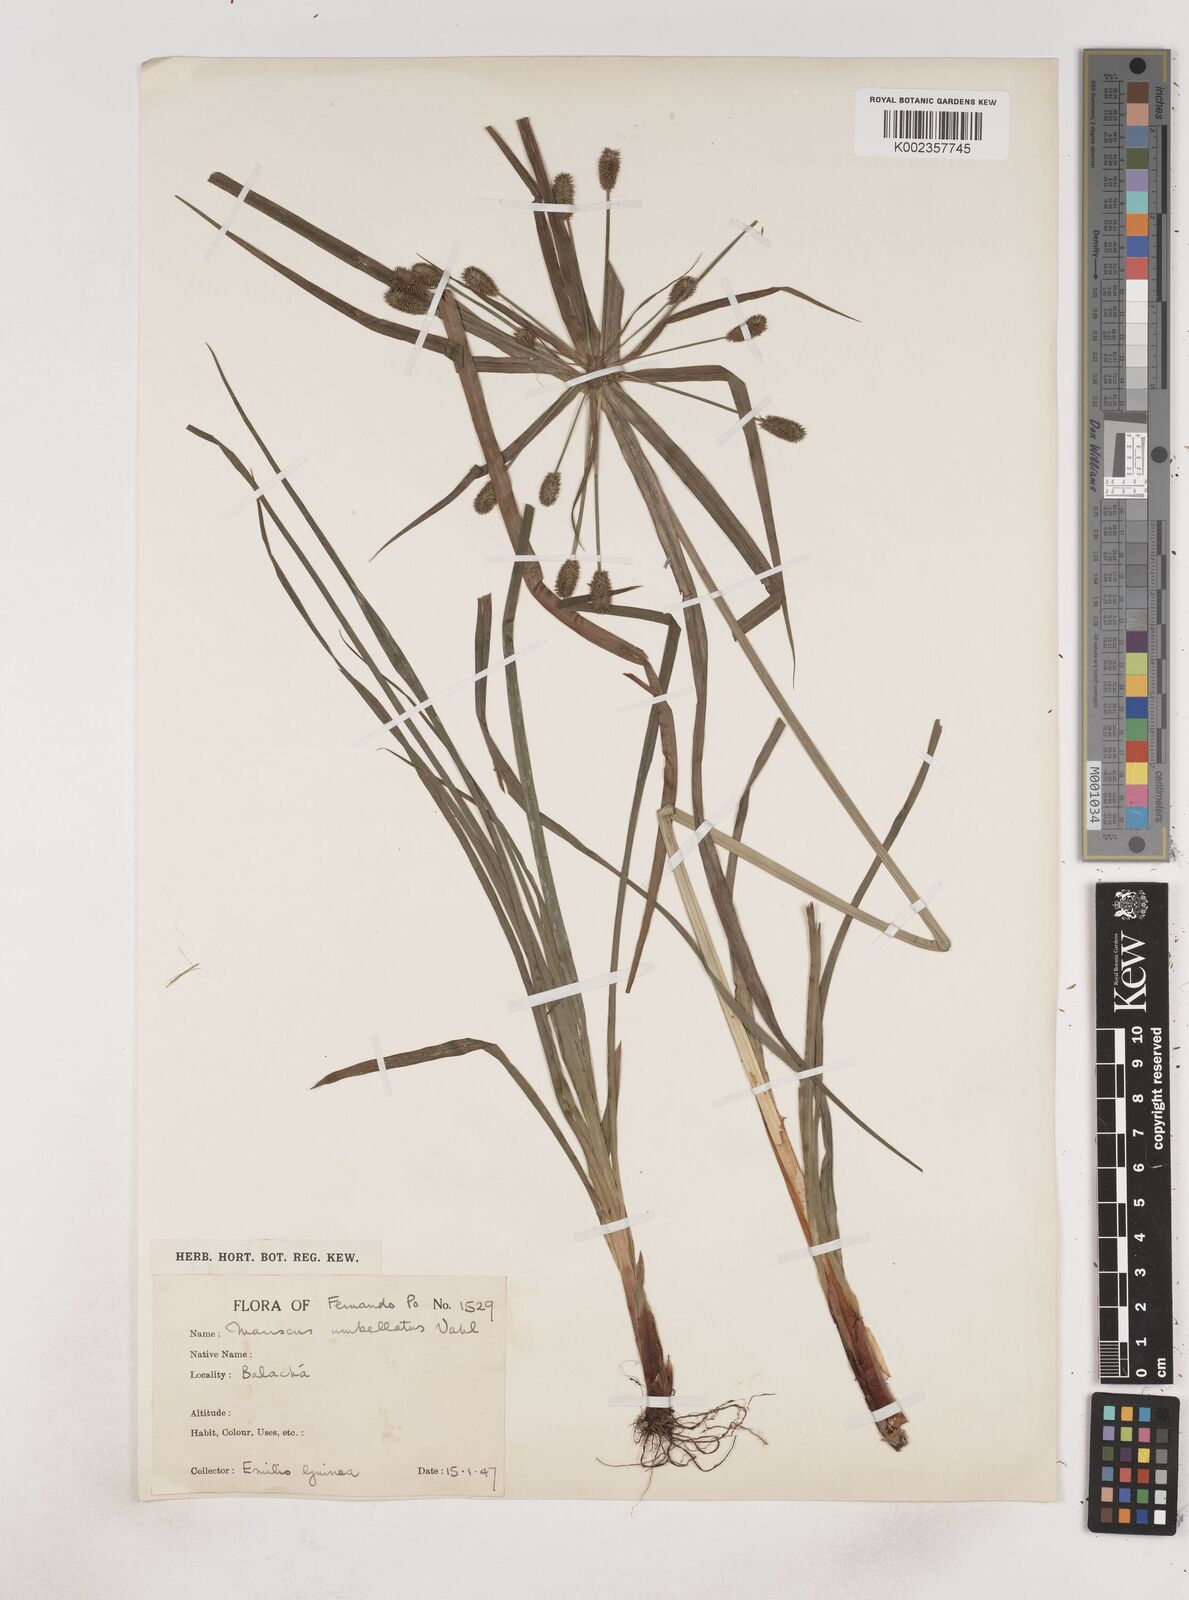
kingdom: Plantae
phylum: Tracheophyta
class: Liliopsida
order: Poales
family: Cyperaceae
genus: Cyperus
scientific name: Cyperus sublimis
